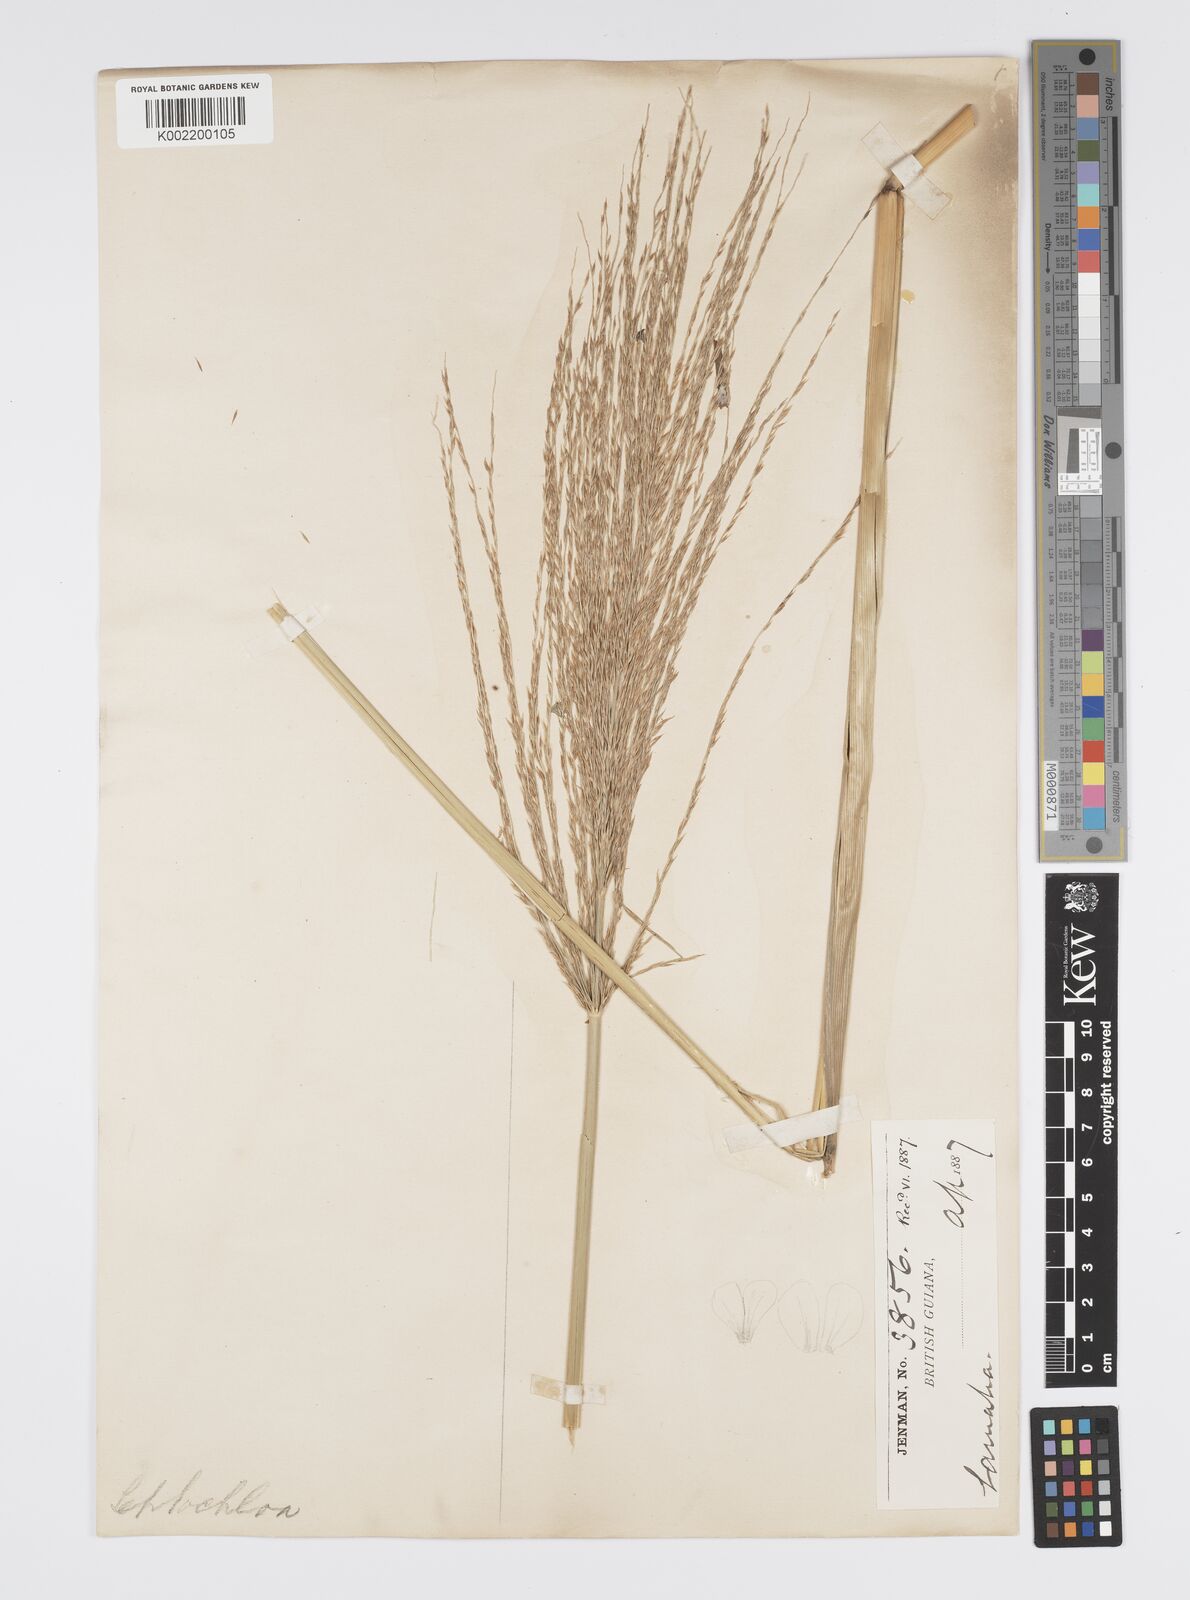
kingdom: Plantae
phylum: Tracheophyta
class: Liliopsida
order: Poales
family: Poaceae
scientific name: Poaceae
